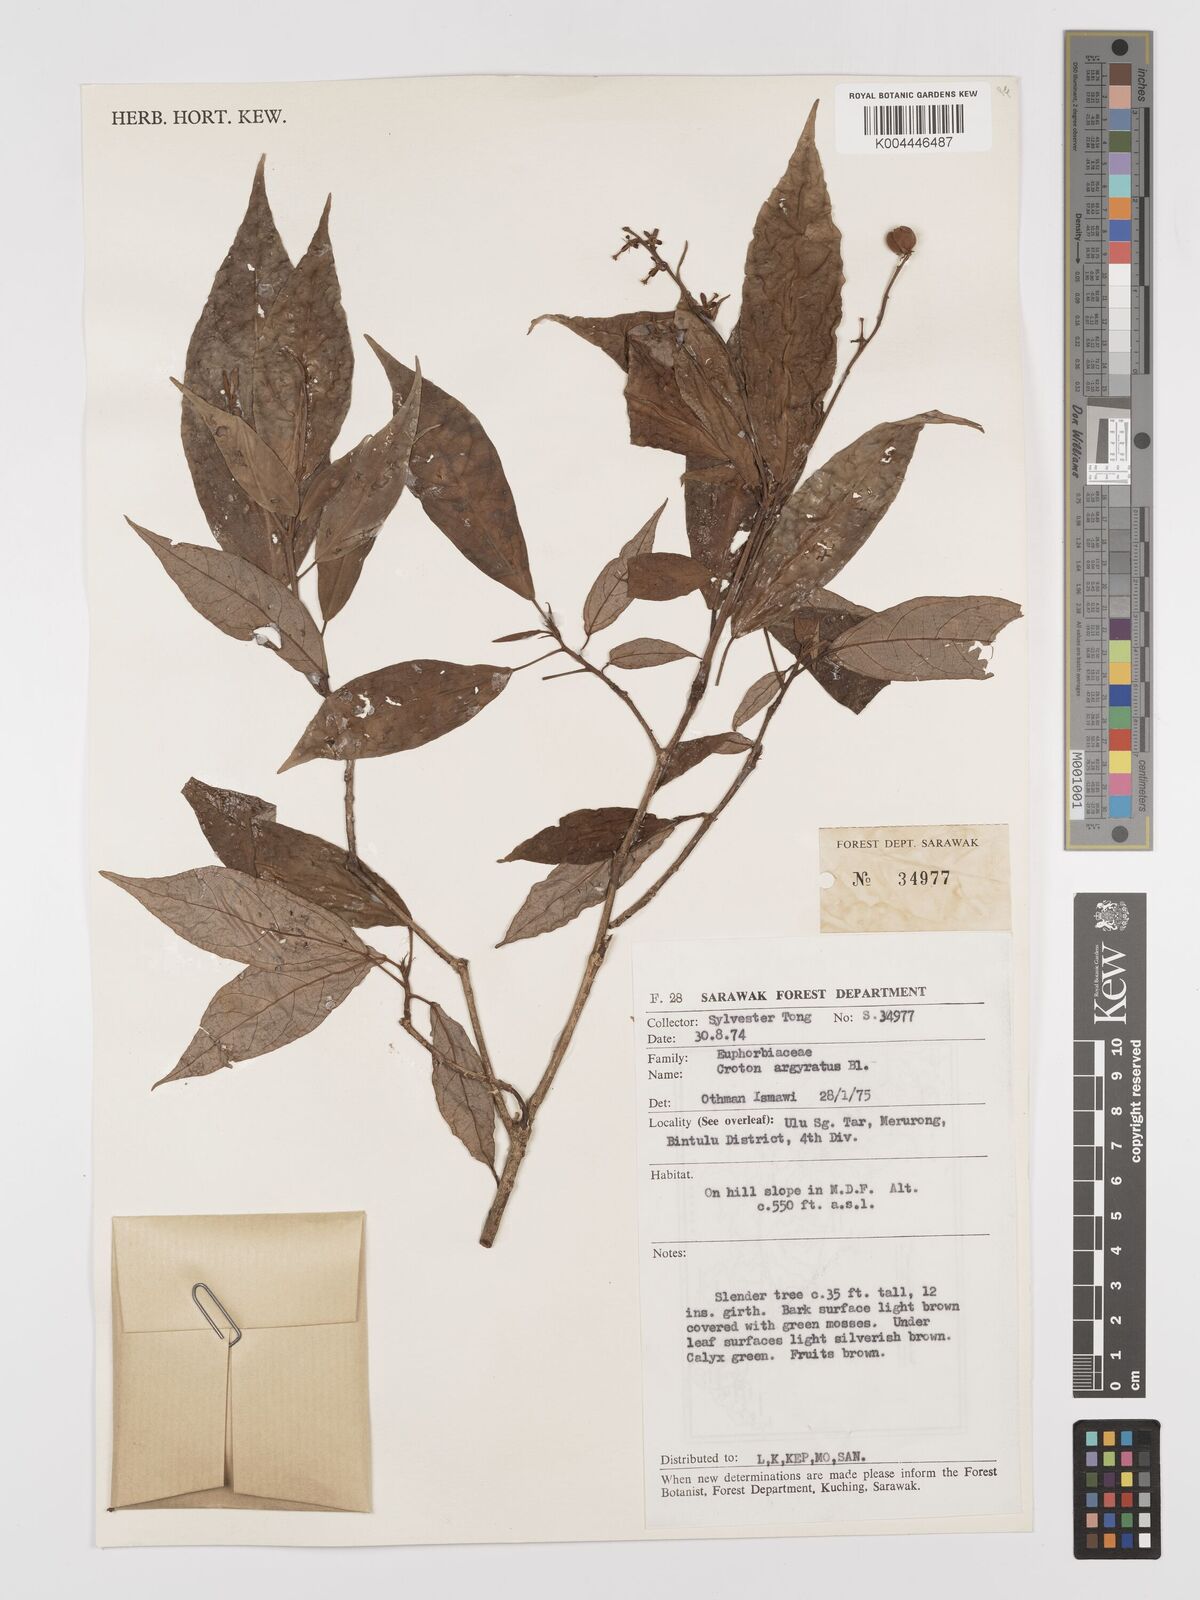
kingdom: Plantae
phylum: Tracheophyta
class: Magnoliopsida
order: Malpighiales
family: Euphorbiaceae
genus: Croton
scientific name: Croton argyratus
